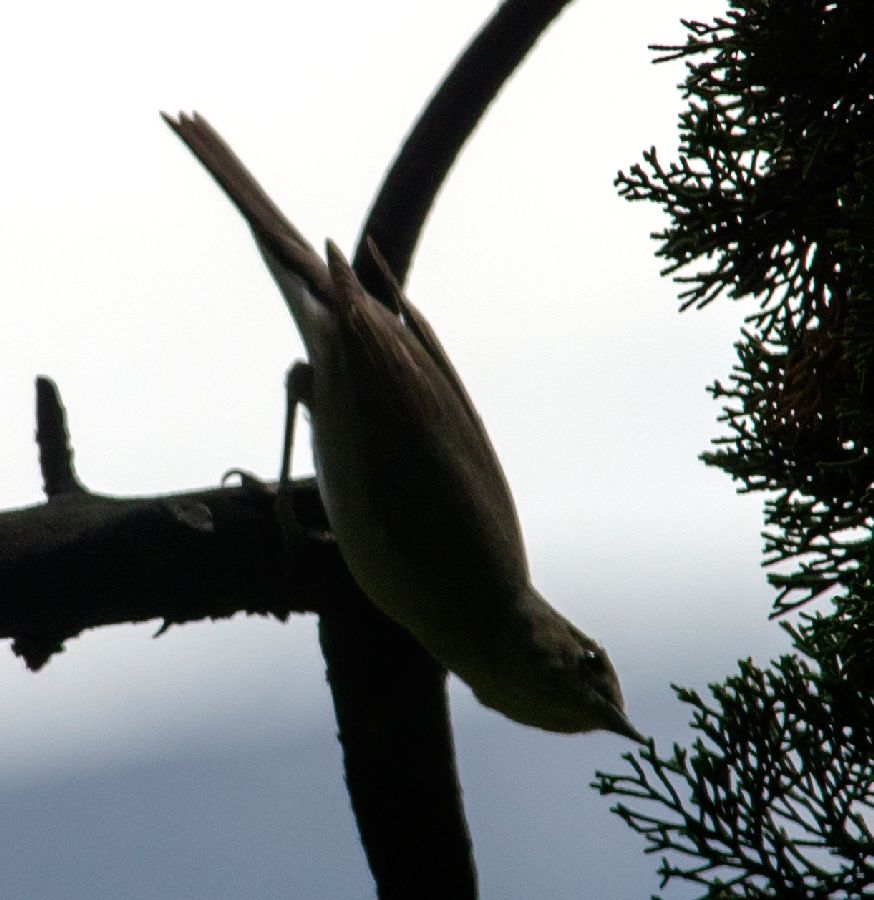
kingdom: Animalia
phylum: Chordata
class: Aves
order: Passeriformes
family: Sylviidae
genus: Sylvia
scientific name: Sylvia atricapilla
